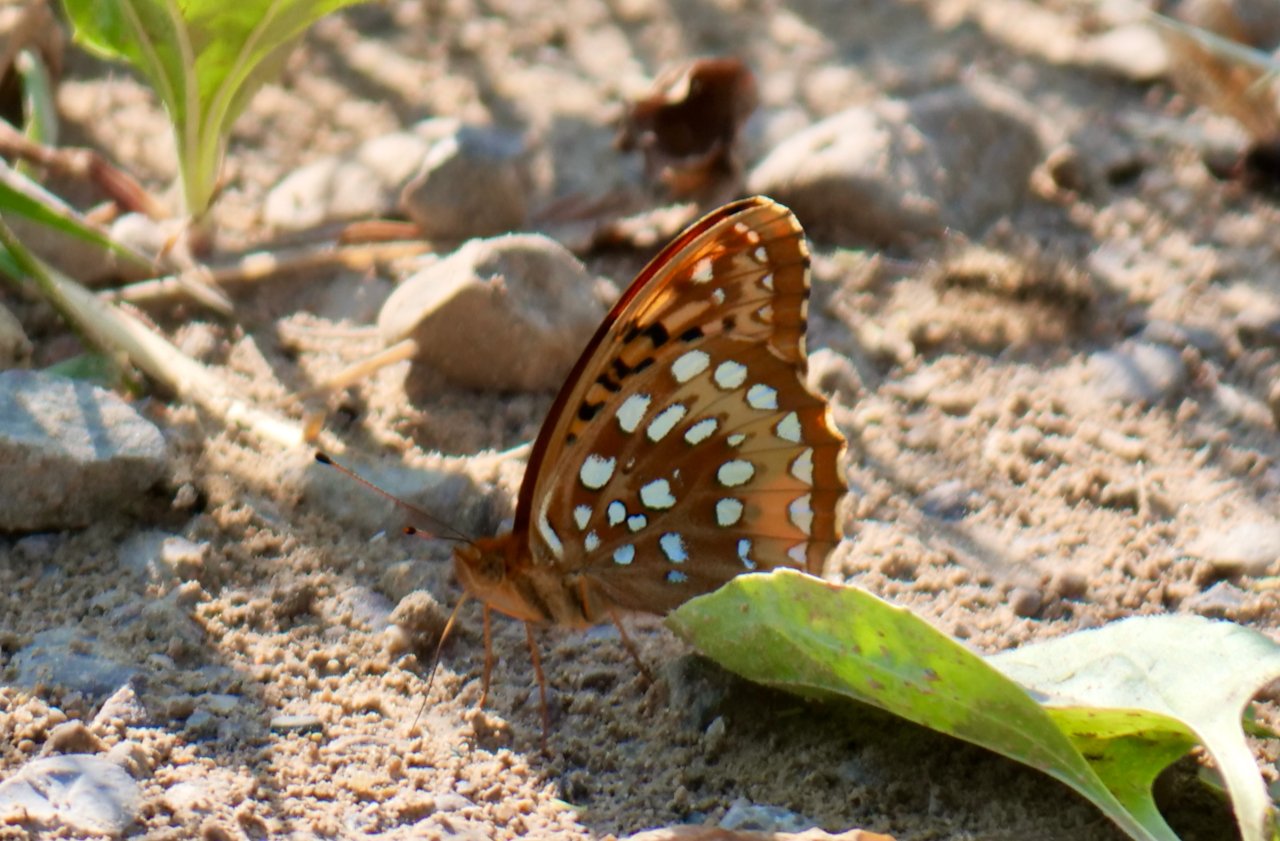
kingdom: Animalia
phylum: Arthropoda
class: Insecta
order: Lepidoptera
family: Nymphalidae
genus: Speyeria
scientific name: Speyeria cybele
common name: Great Spangled Fritillary
